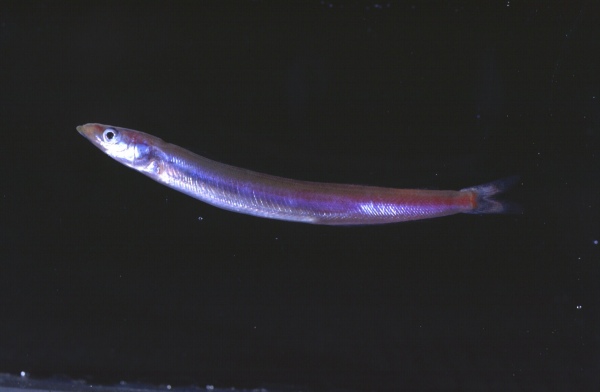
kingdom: Animalia
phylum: Chordata
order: Perciformes
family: Ammodytidae
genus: Ammodytoides
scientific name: Ammodytoides renniei
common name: Scaly sandlance
